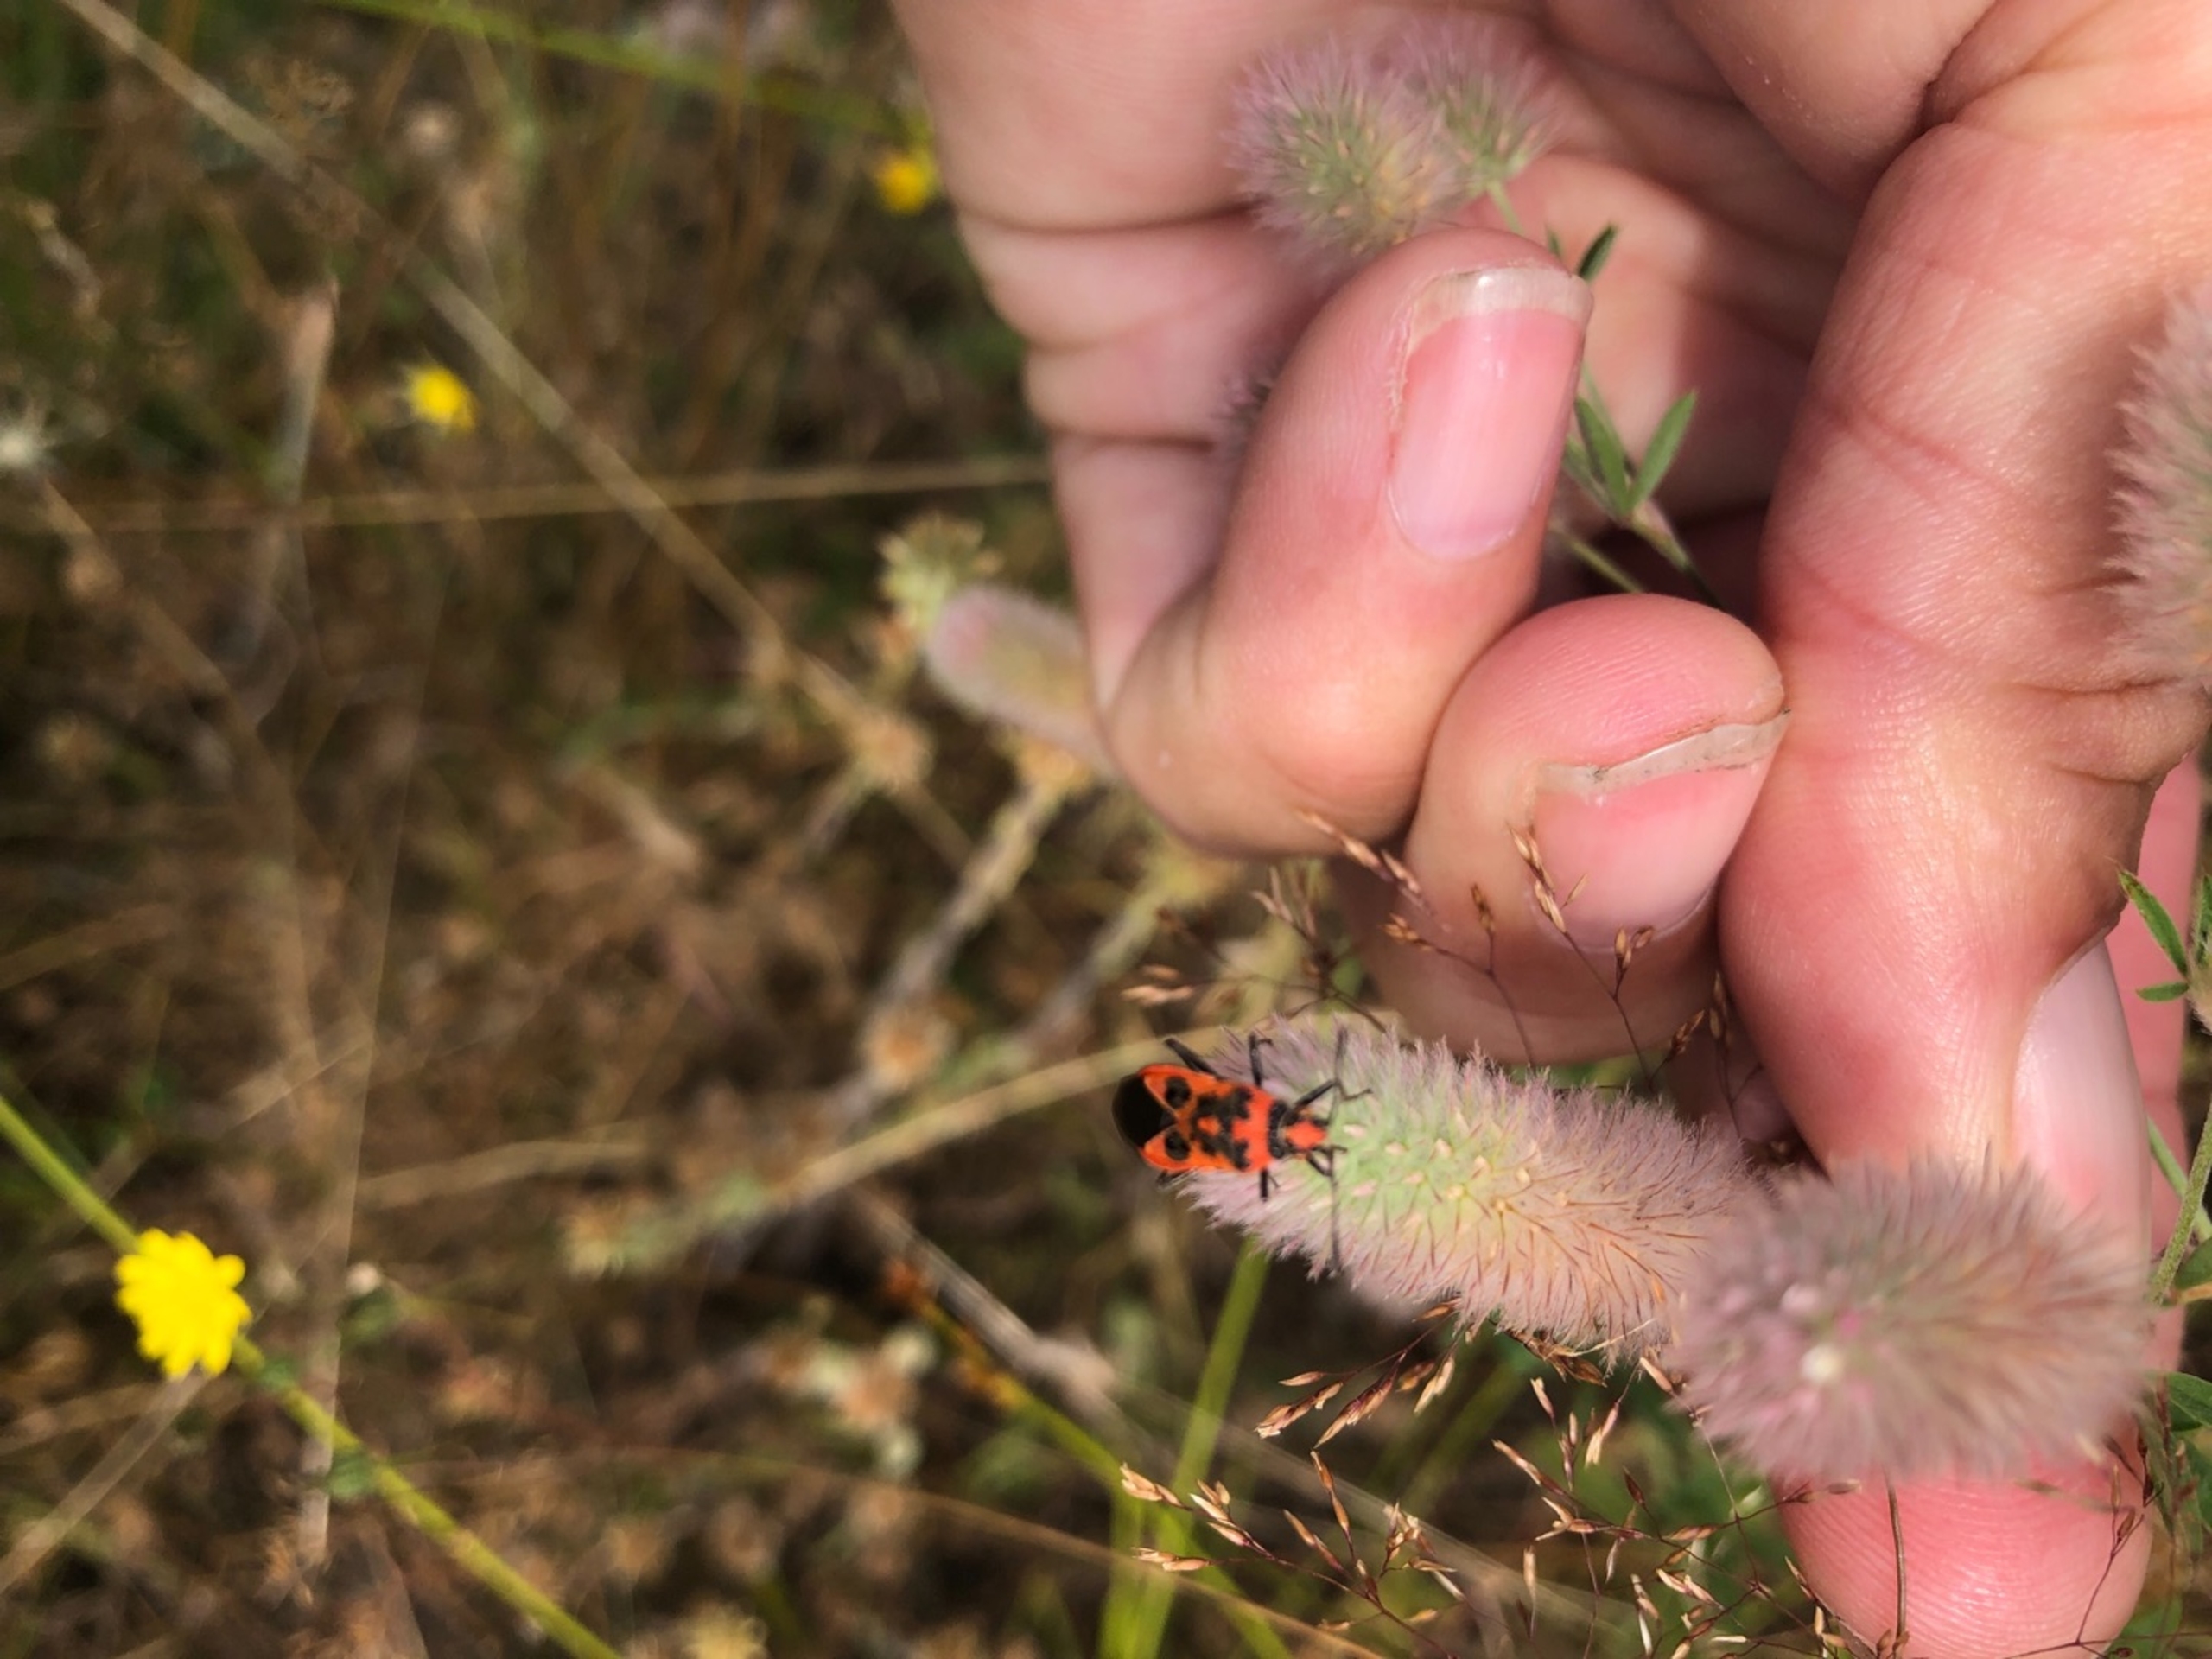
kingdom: Plantae
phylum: Tracheophyta
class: Magnoliopsida
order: Fabales
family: Fabaceae
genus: Trifolium
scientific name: Trifolium arvense
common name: Hare-kløver
